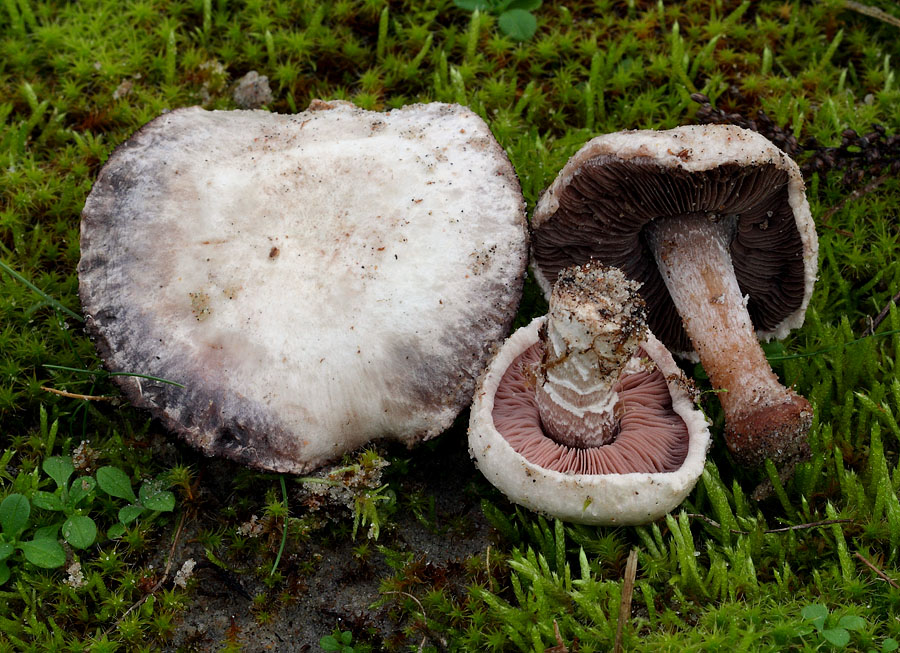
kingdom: Fungi
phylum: Basidiomycota
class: Agaricomycetes
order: Agaricales
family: Agaricaceae
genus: Agaricus
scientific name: Agaricus devoniensis
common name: klit-champignon
